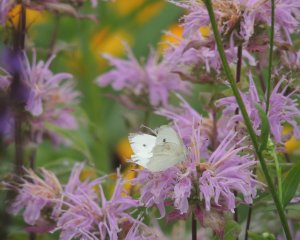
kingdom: Animalia
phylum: Arthropoda
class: Insecta
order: Lepidoptera
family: Pieridae
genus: Pieris
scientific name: Pieris rapae
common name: Cabbage White
